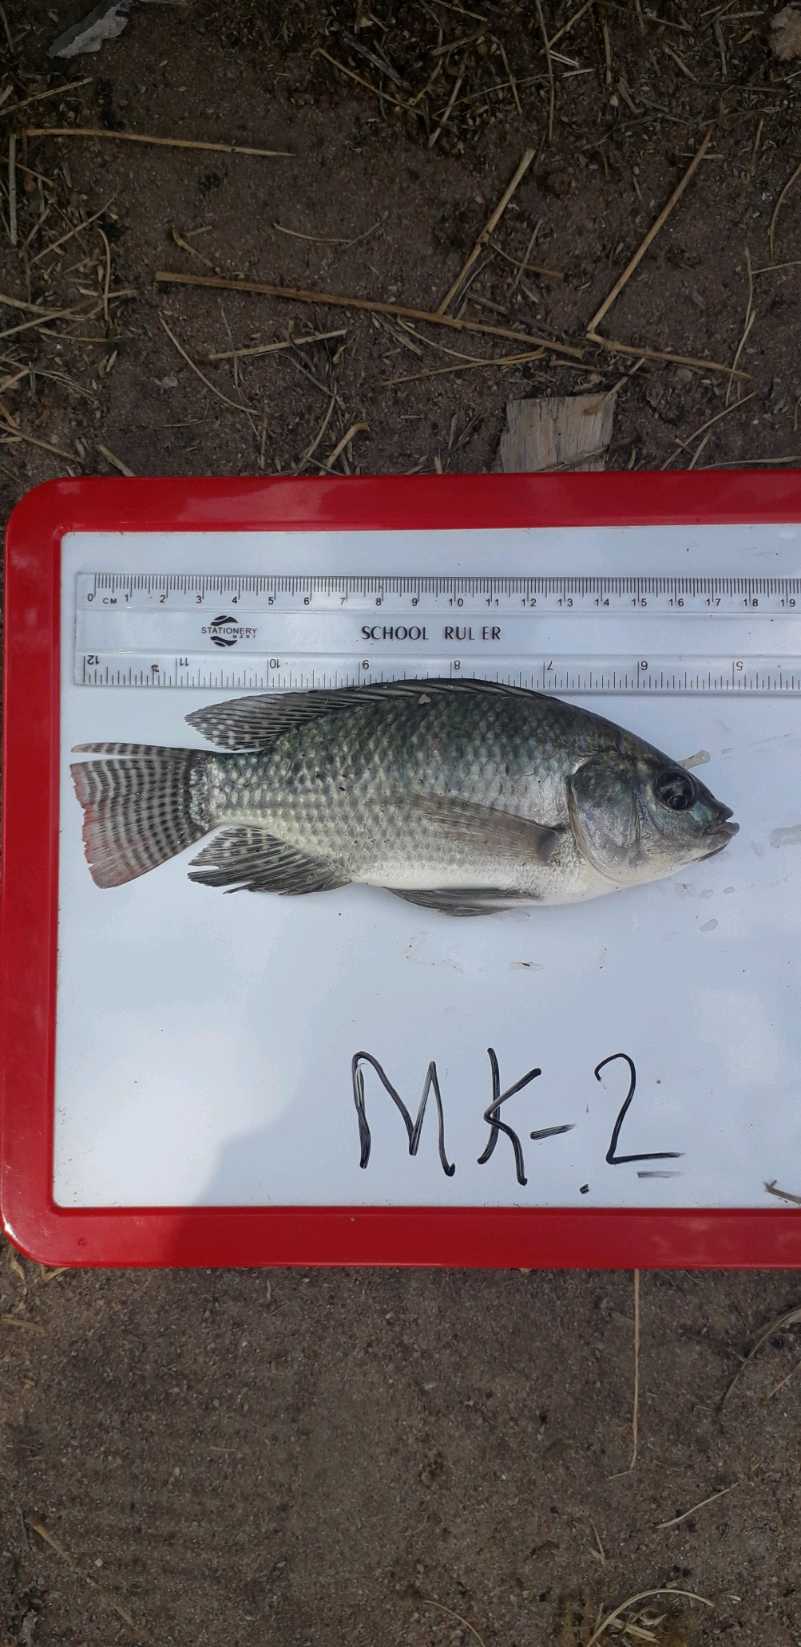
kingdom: Animalia
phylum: Chordata
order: Perciformes
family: Cichlidae
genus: Oreochromis
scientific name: Oreochromis niloticus
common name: Nile tilapia
